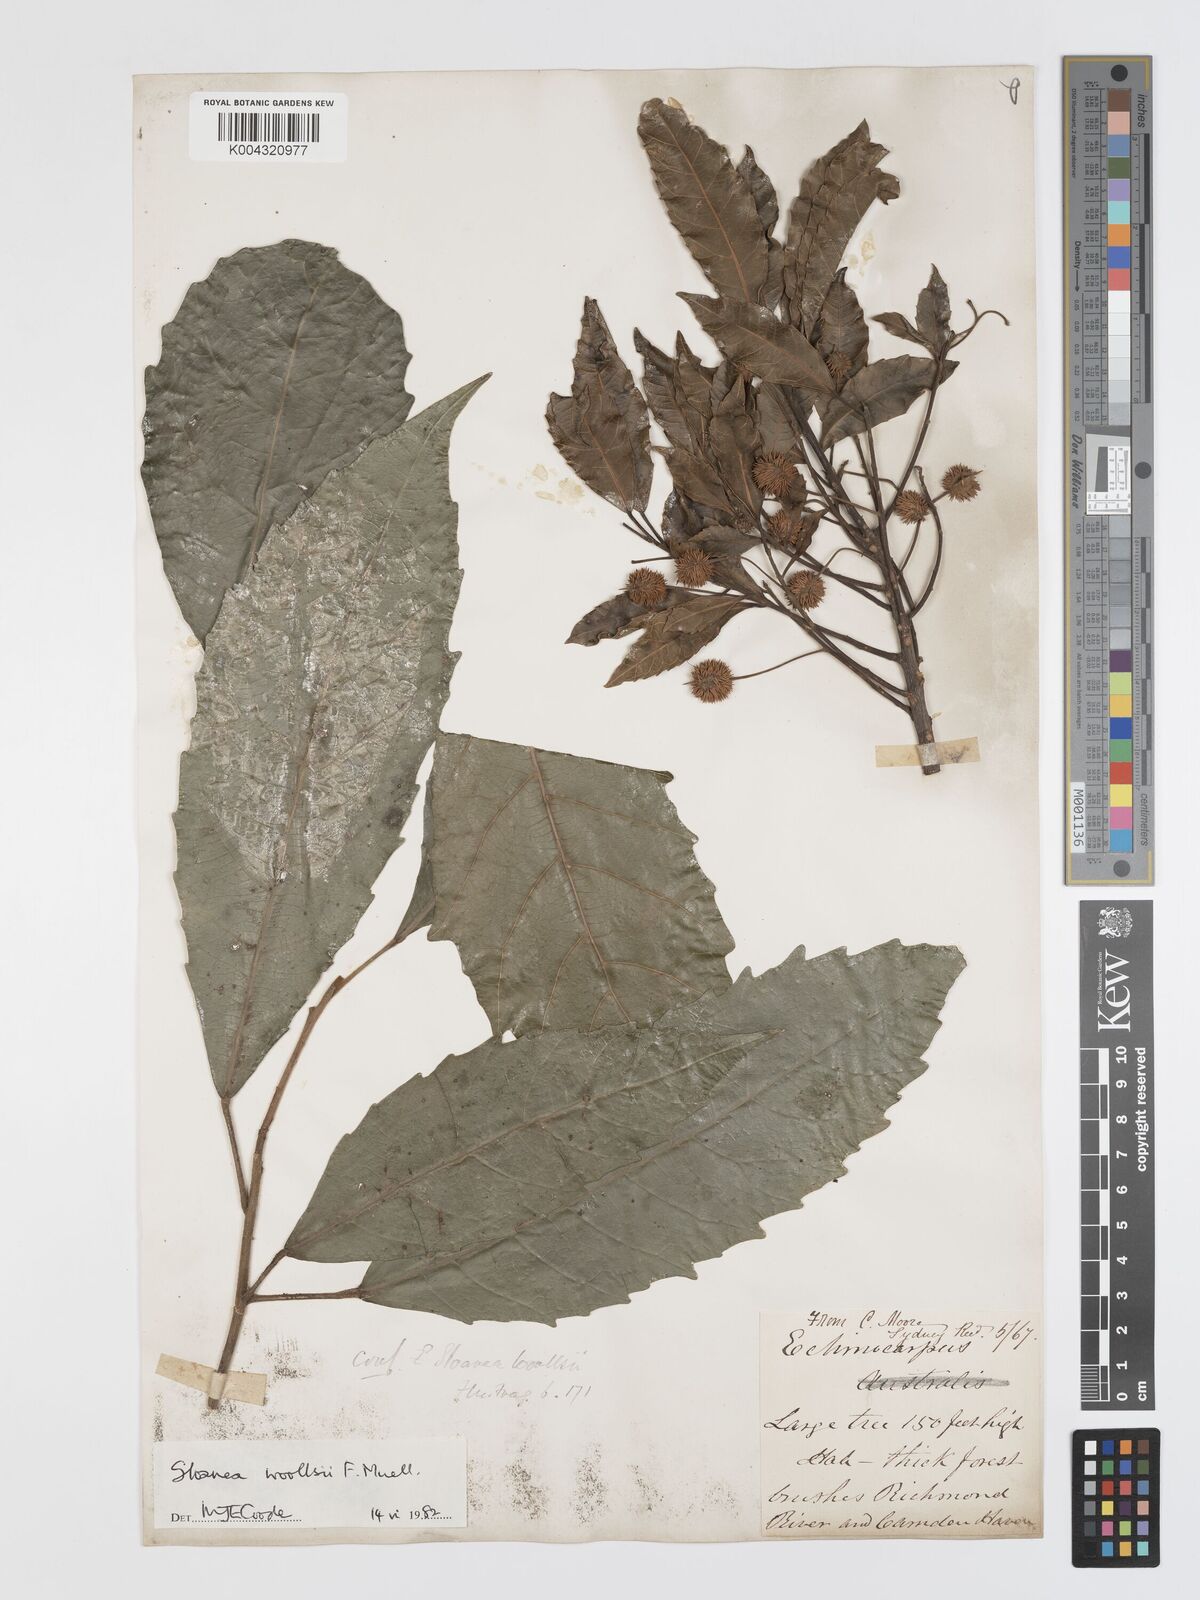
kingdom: Plantae
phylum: Tracheophyta
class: Magnoliopsida
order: Oxalidales
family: Elaeocarpaceae
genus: Sloanea
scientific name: Sloanea woollsii
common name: Yellow carabeen
